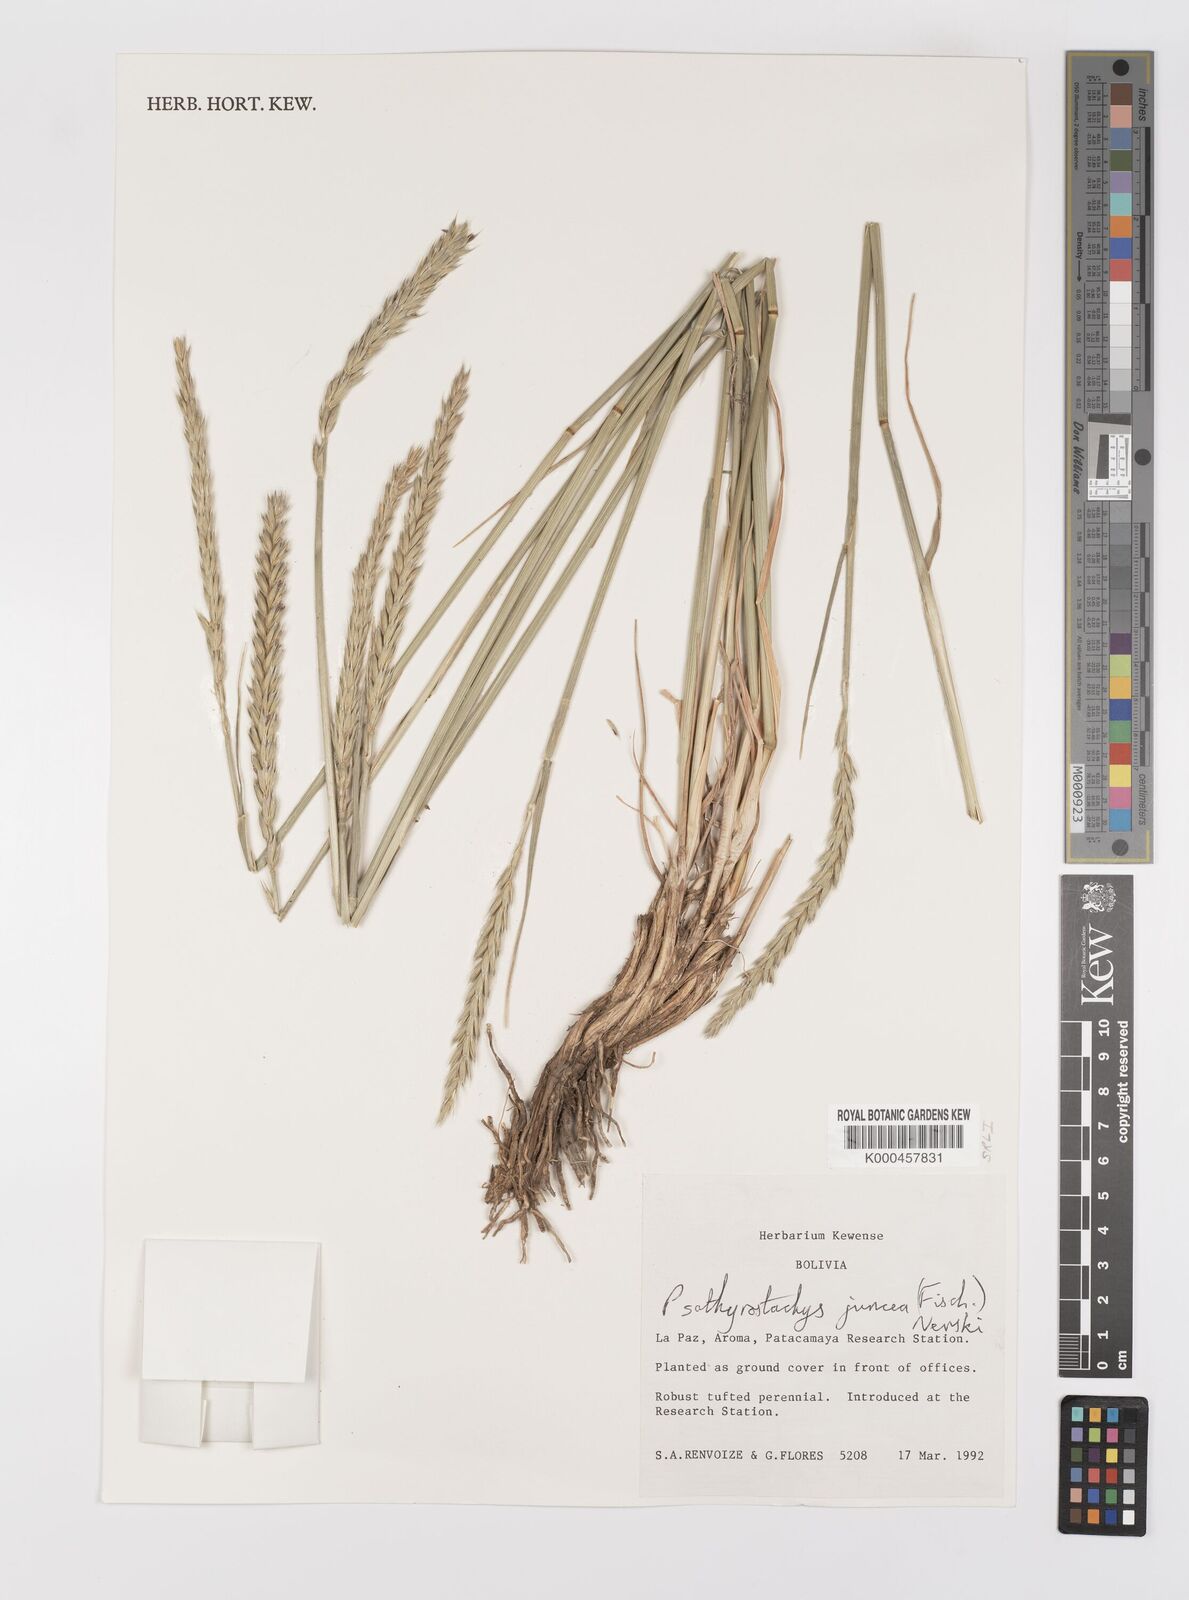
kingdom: Plantae
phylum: Tracheophyta
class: Liliopsida
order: Poales
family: Poaceae
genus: Psathyrostachys
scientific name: Psathyrostachys juncea
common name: Russian wildrye
